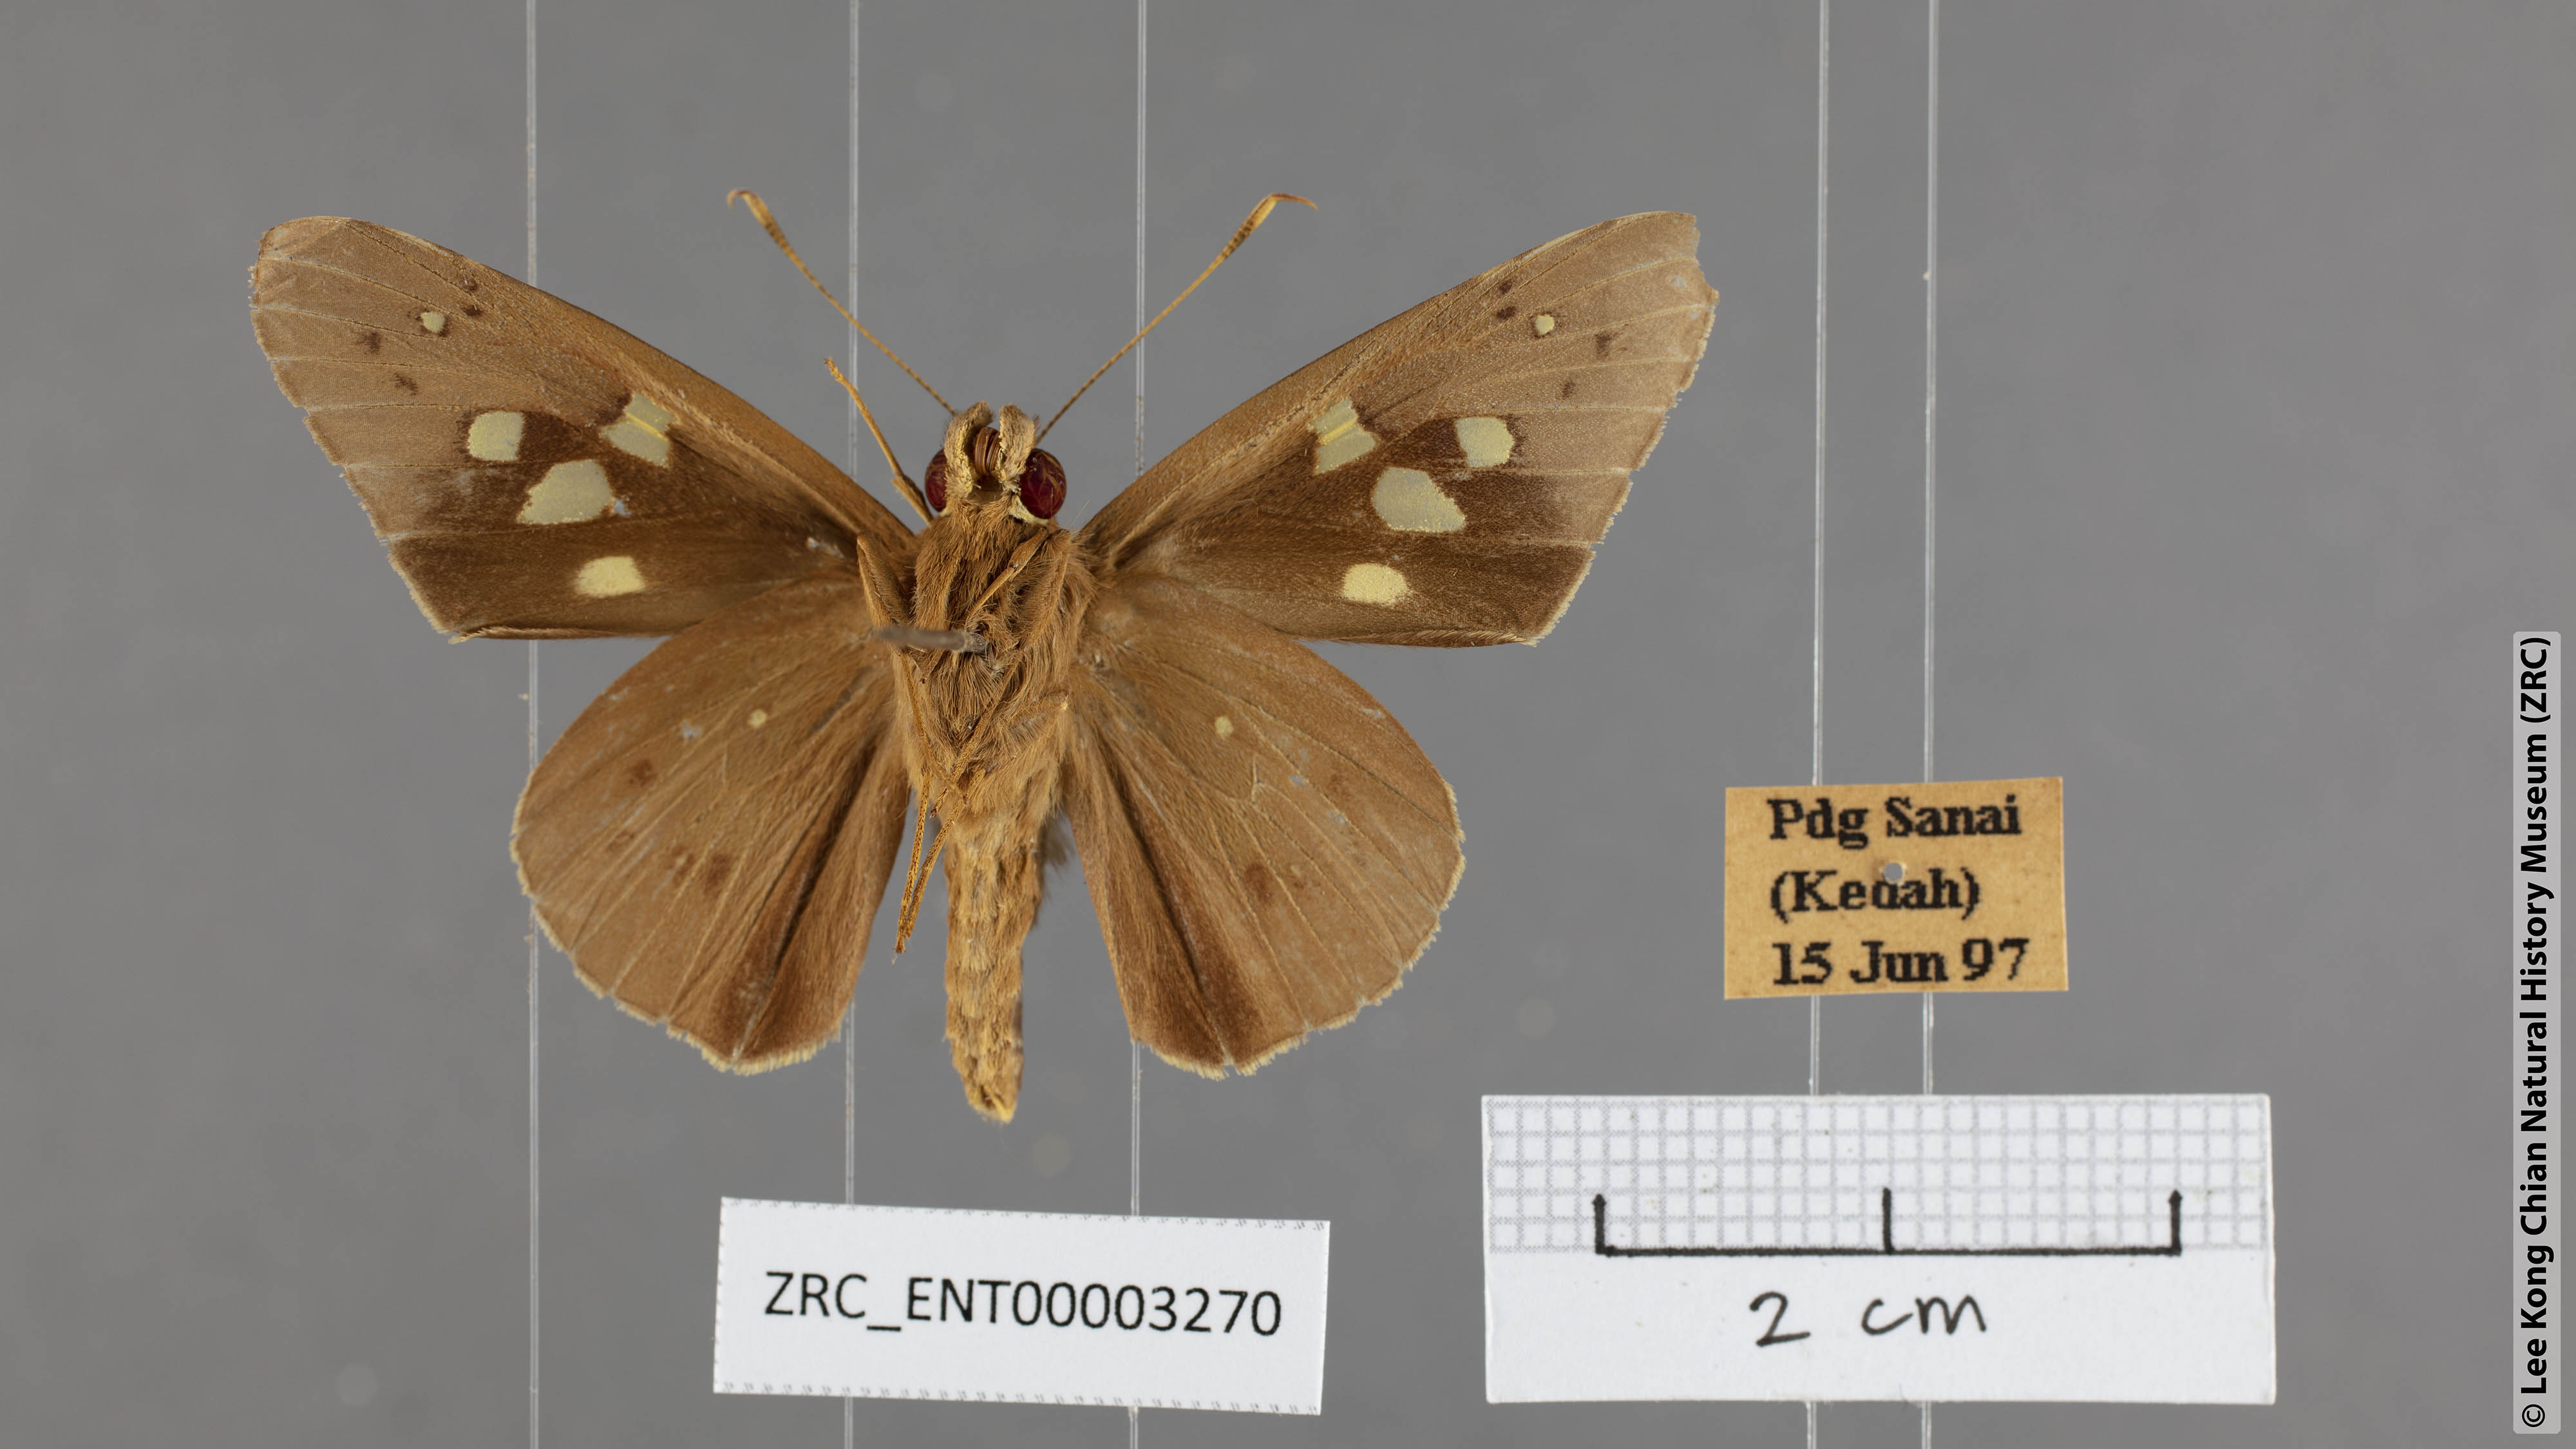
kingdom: Animalia
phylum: Arthropoda
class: Insecta
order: Lepidoptera
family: Hesperiidae
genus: Hidari
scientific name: Hidari irava
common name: Coconut skipper
